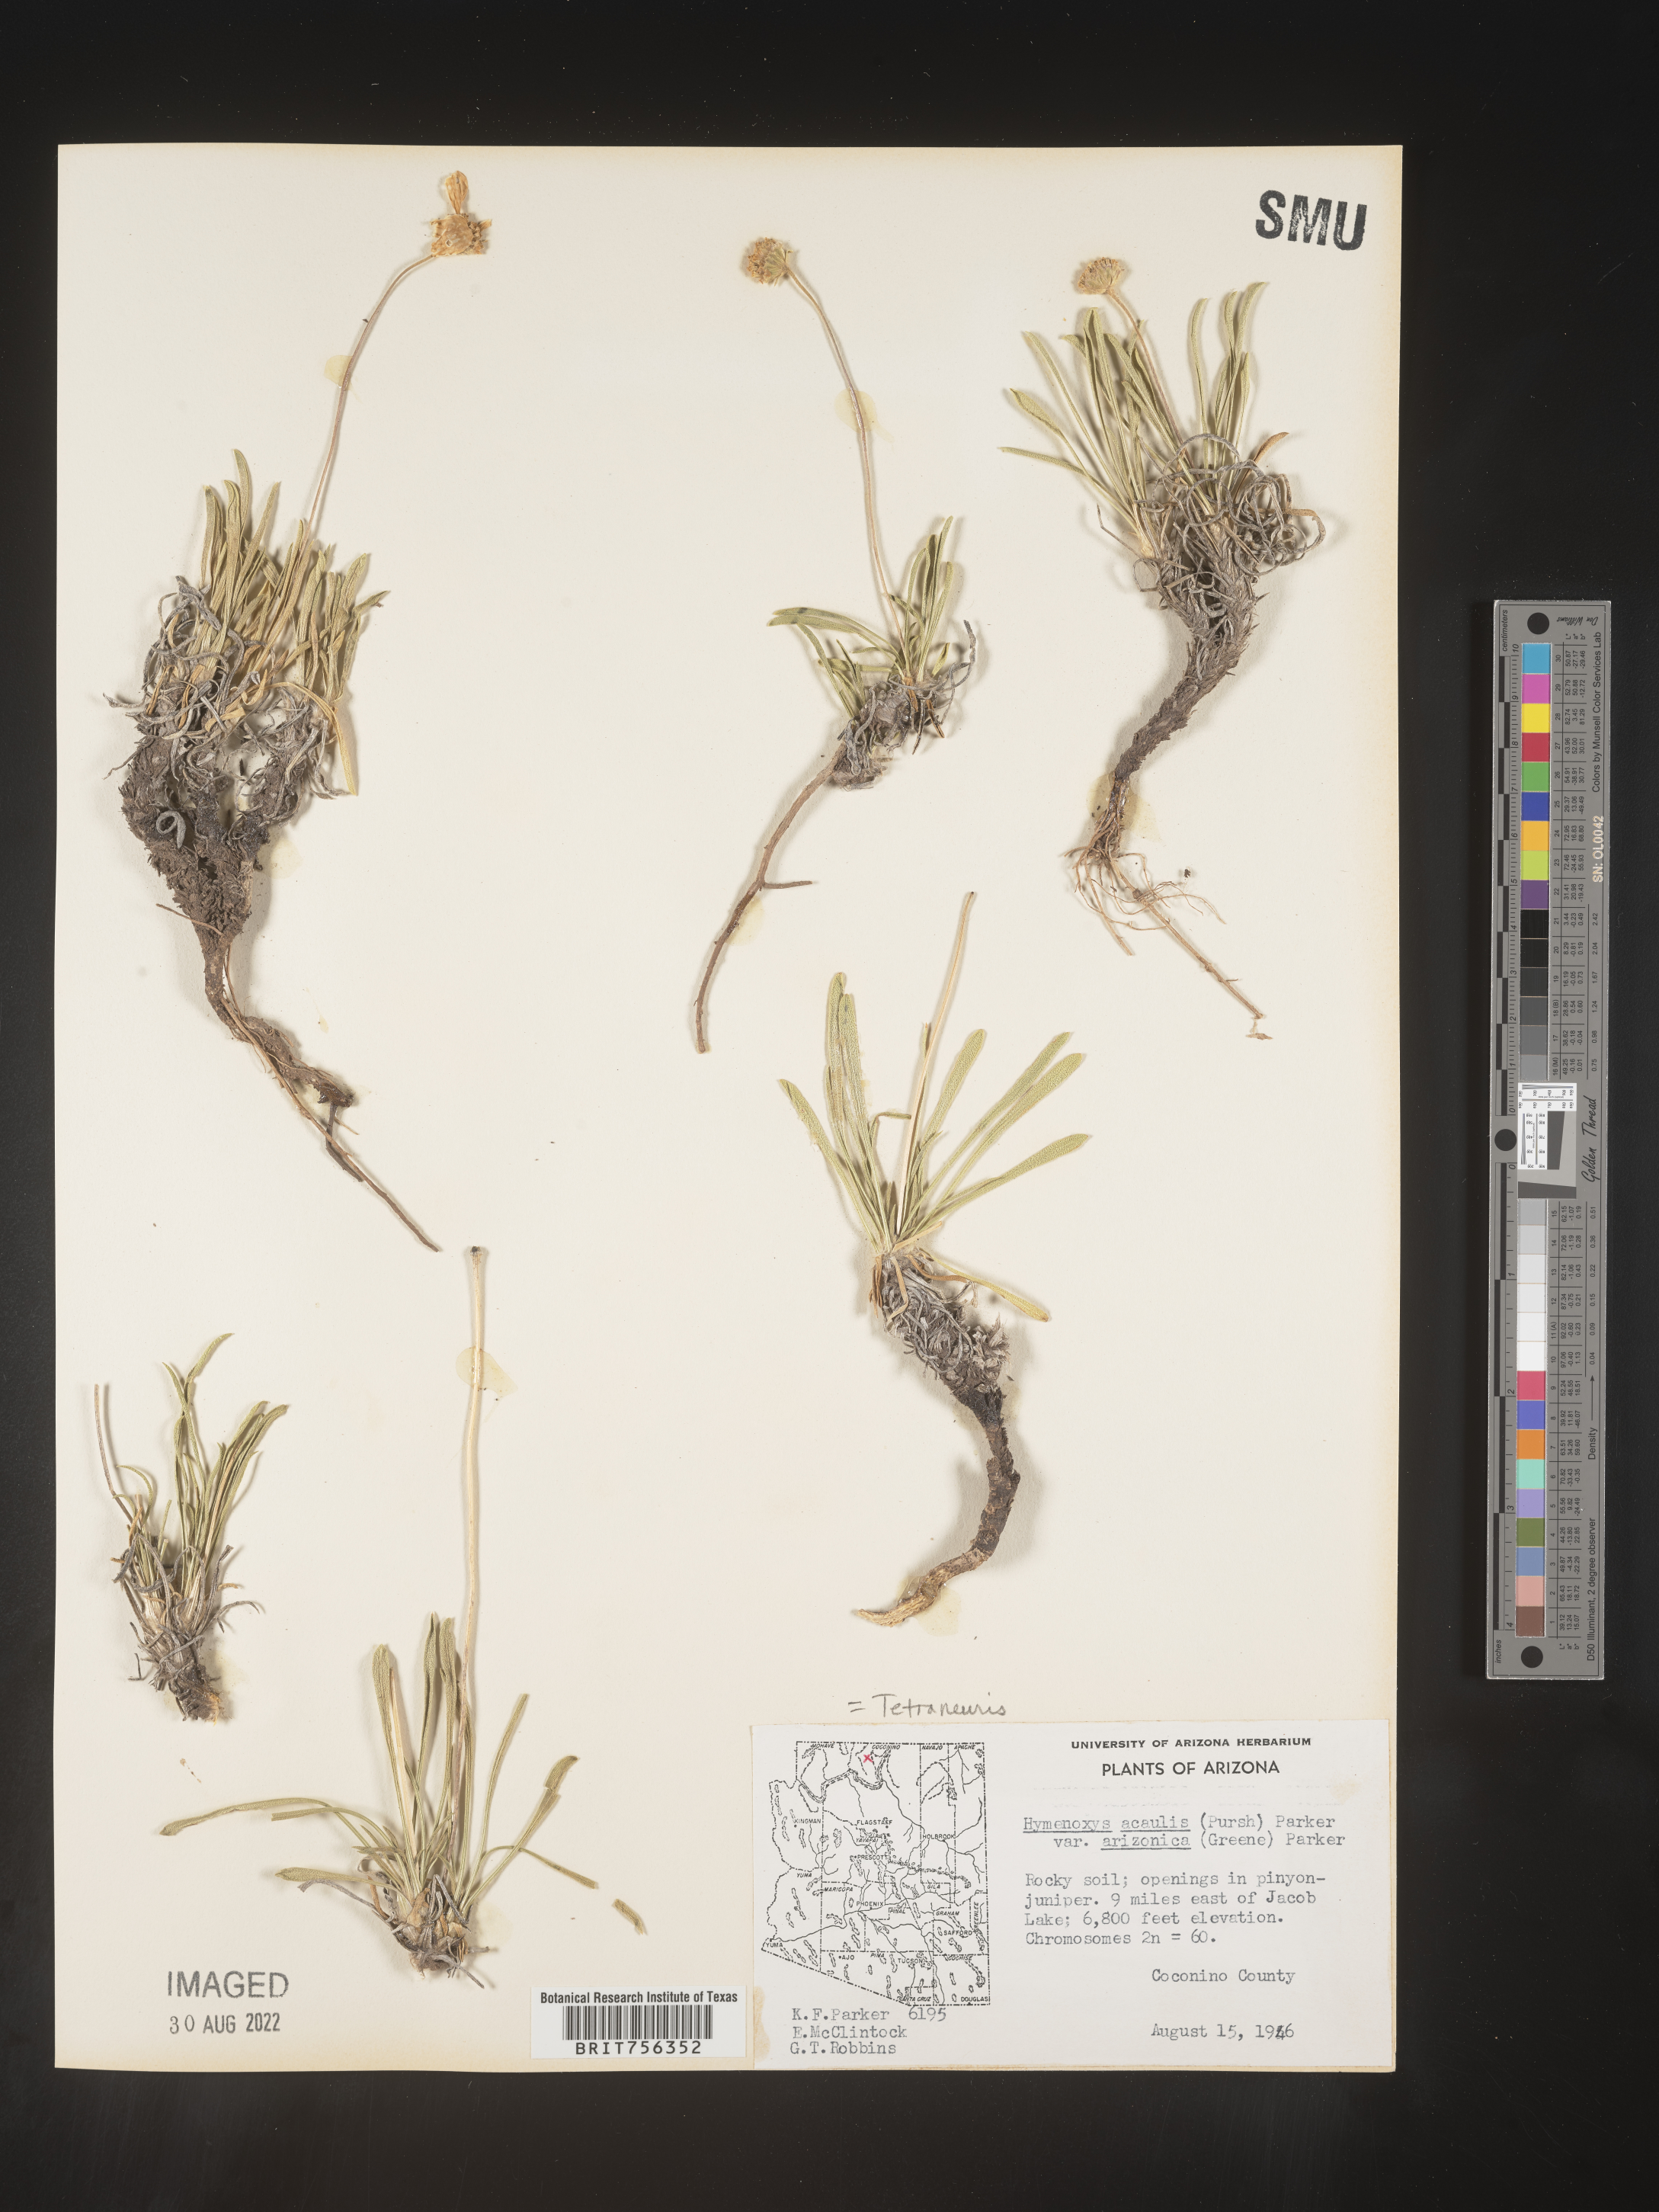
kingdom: Plantae
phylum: Tracheophyta
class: Magnoliopsida
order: Asterales
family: Asteraceae
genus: Tetraneuris
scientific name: Tetraneuris acaulis
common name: Butte marigold
